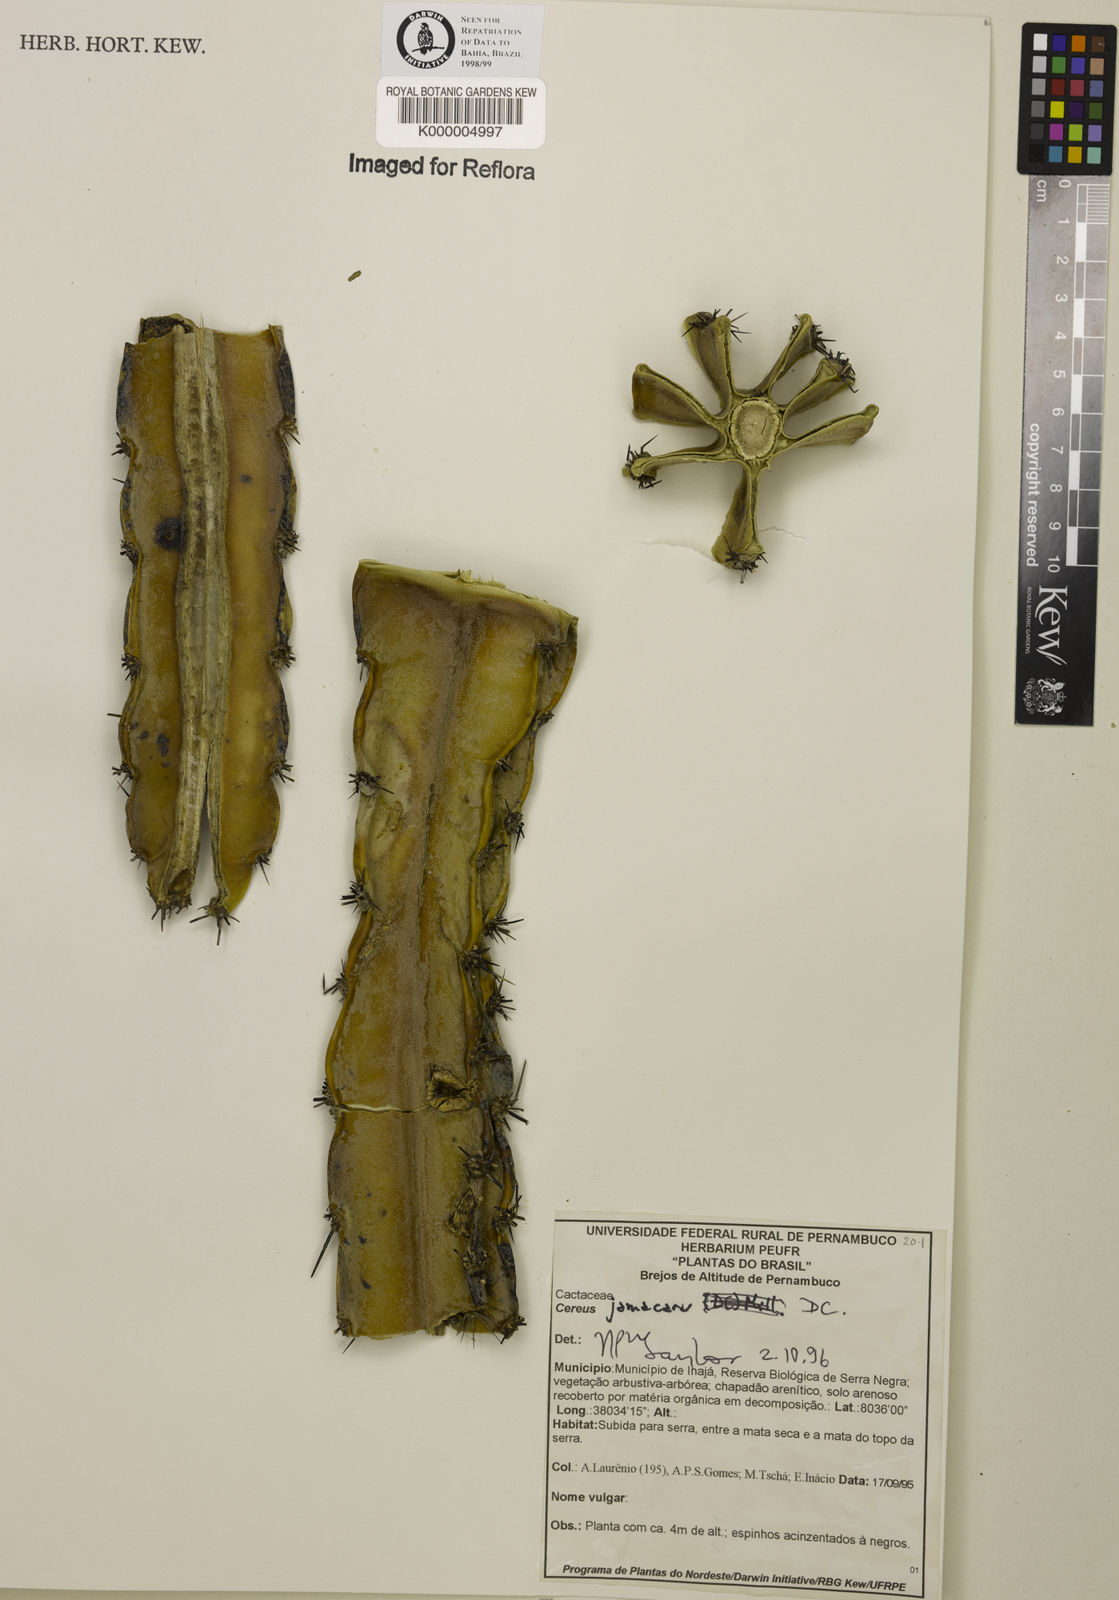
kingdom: Plantae
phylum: Tracheophyta
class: Magnoliopsida
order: Caryophyllales
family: Cactaceae
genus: Cereus
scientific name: Cereus jamacaru
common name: Queen-of-the-night
